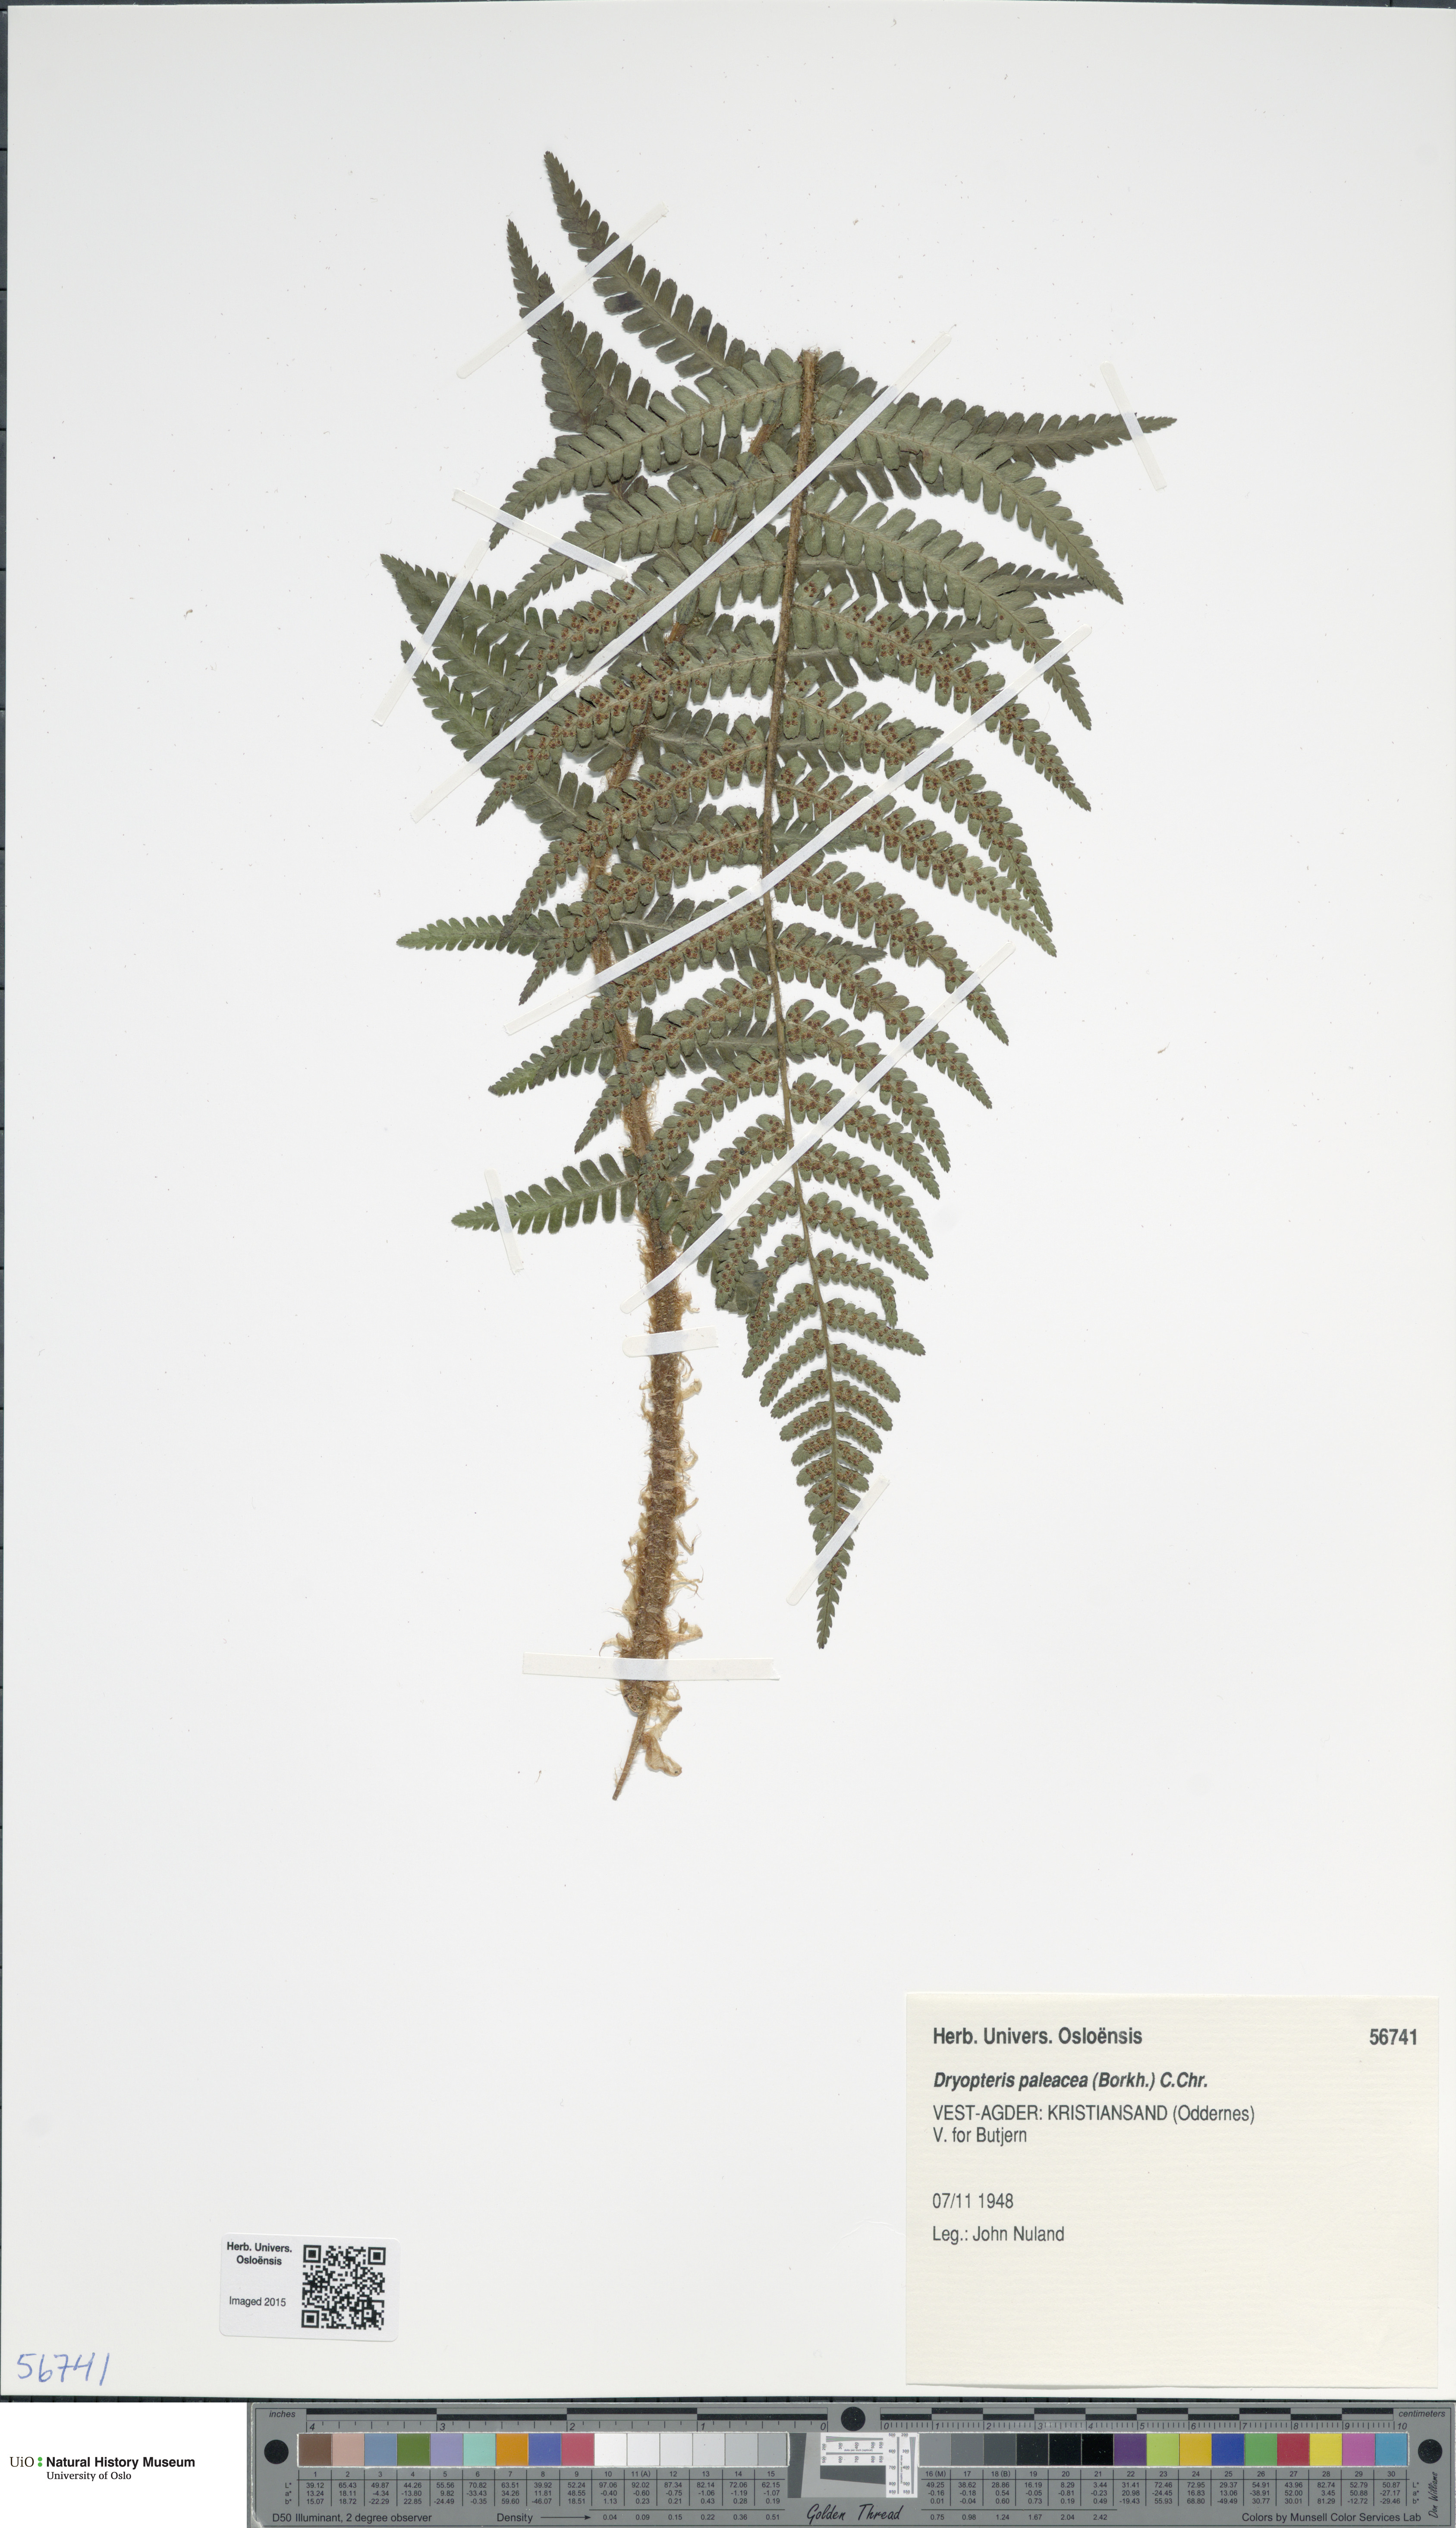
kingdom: Plantae
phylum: Tracheophyta
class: Polypodiopsida
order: Polypodiales
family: Dryopteridaceae
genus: Dryopteris
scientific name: Dryopteris wallichiana
